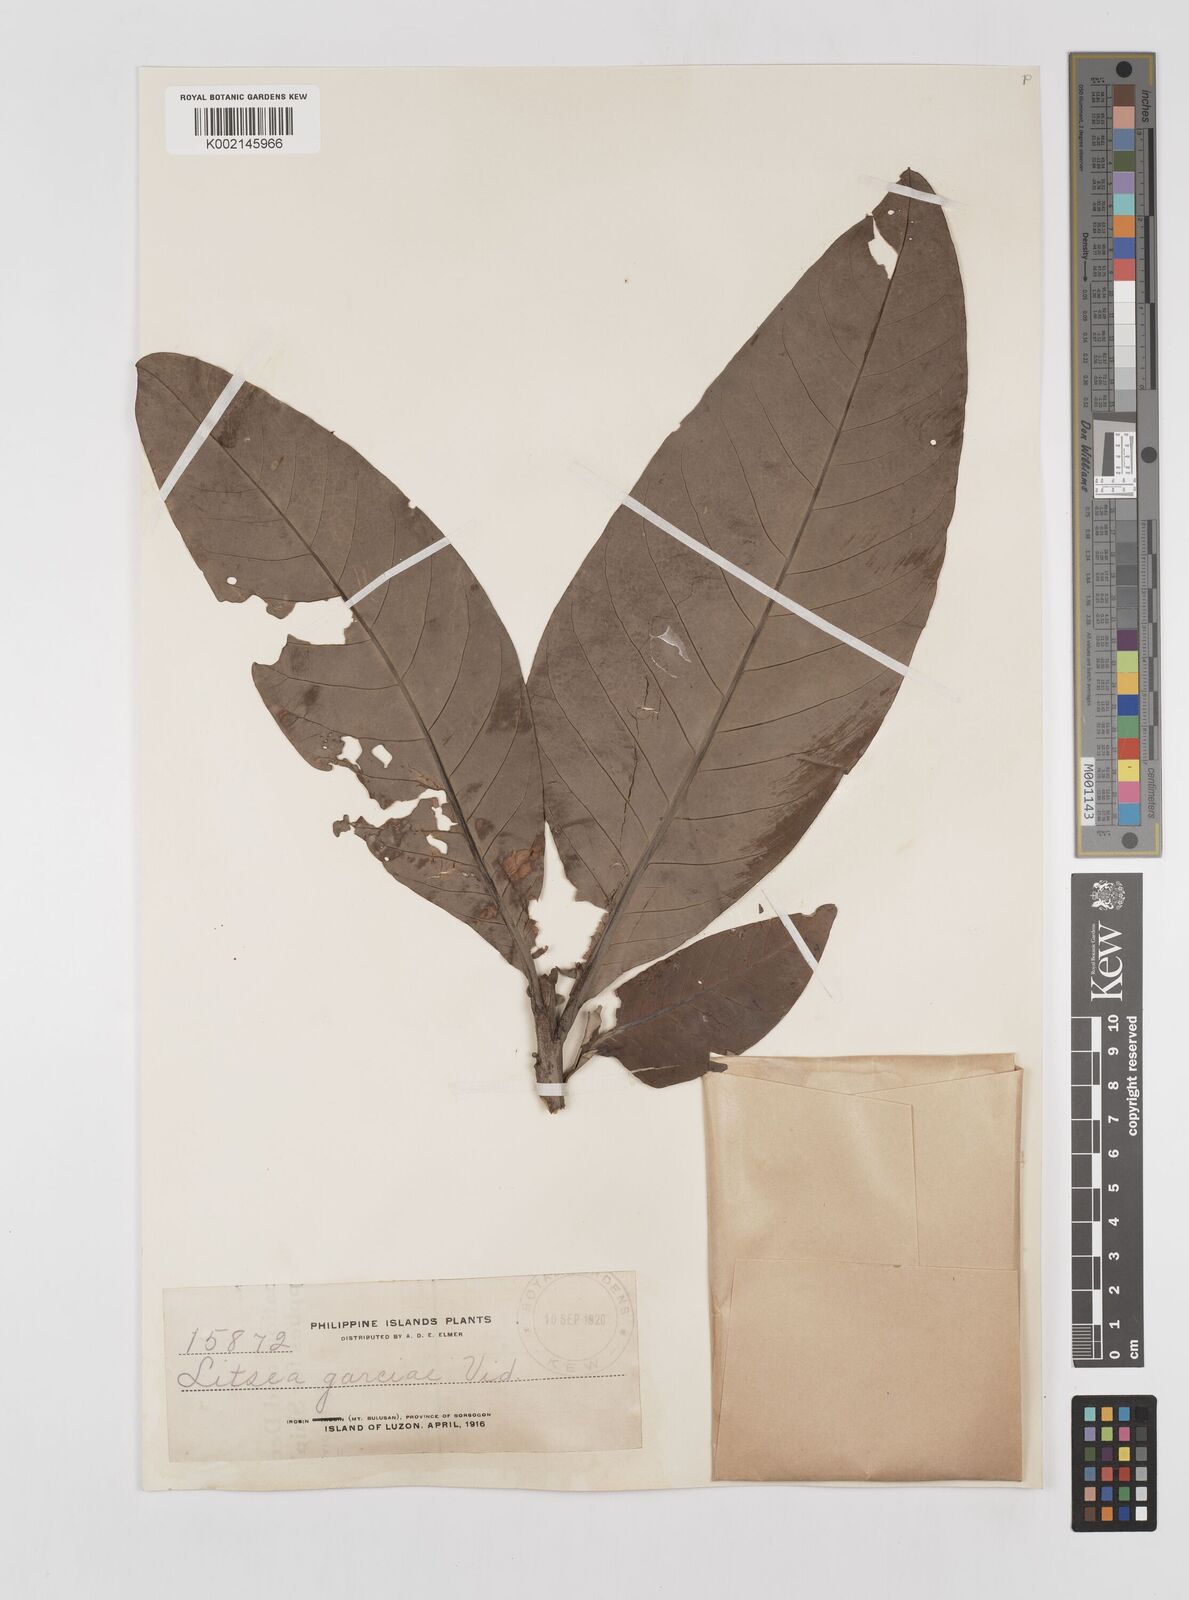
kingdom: Plantae
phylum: Tracheophyta
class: Magnoliopsida
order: Laurales
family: Lauraceae
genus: Litsea
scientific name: Litsea garciae
